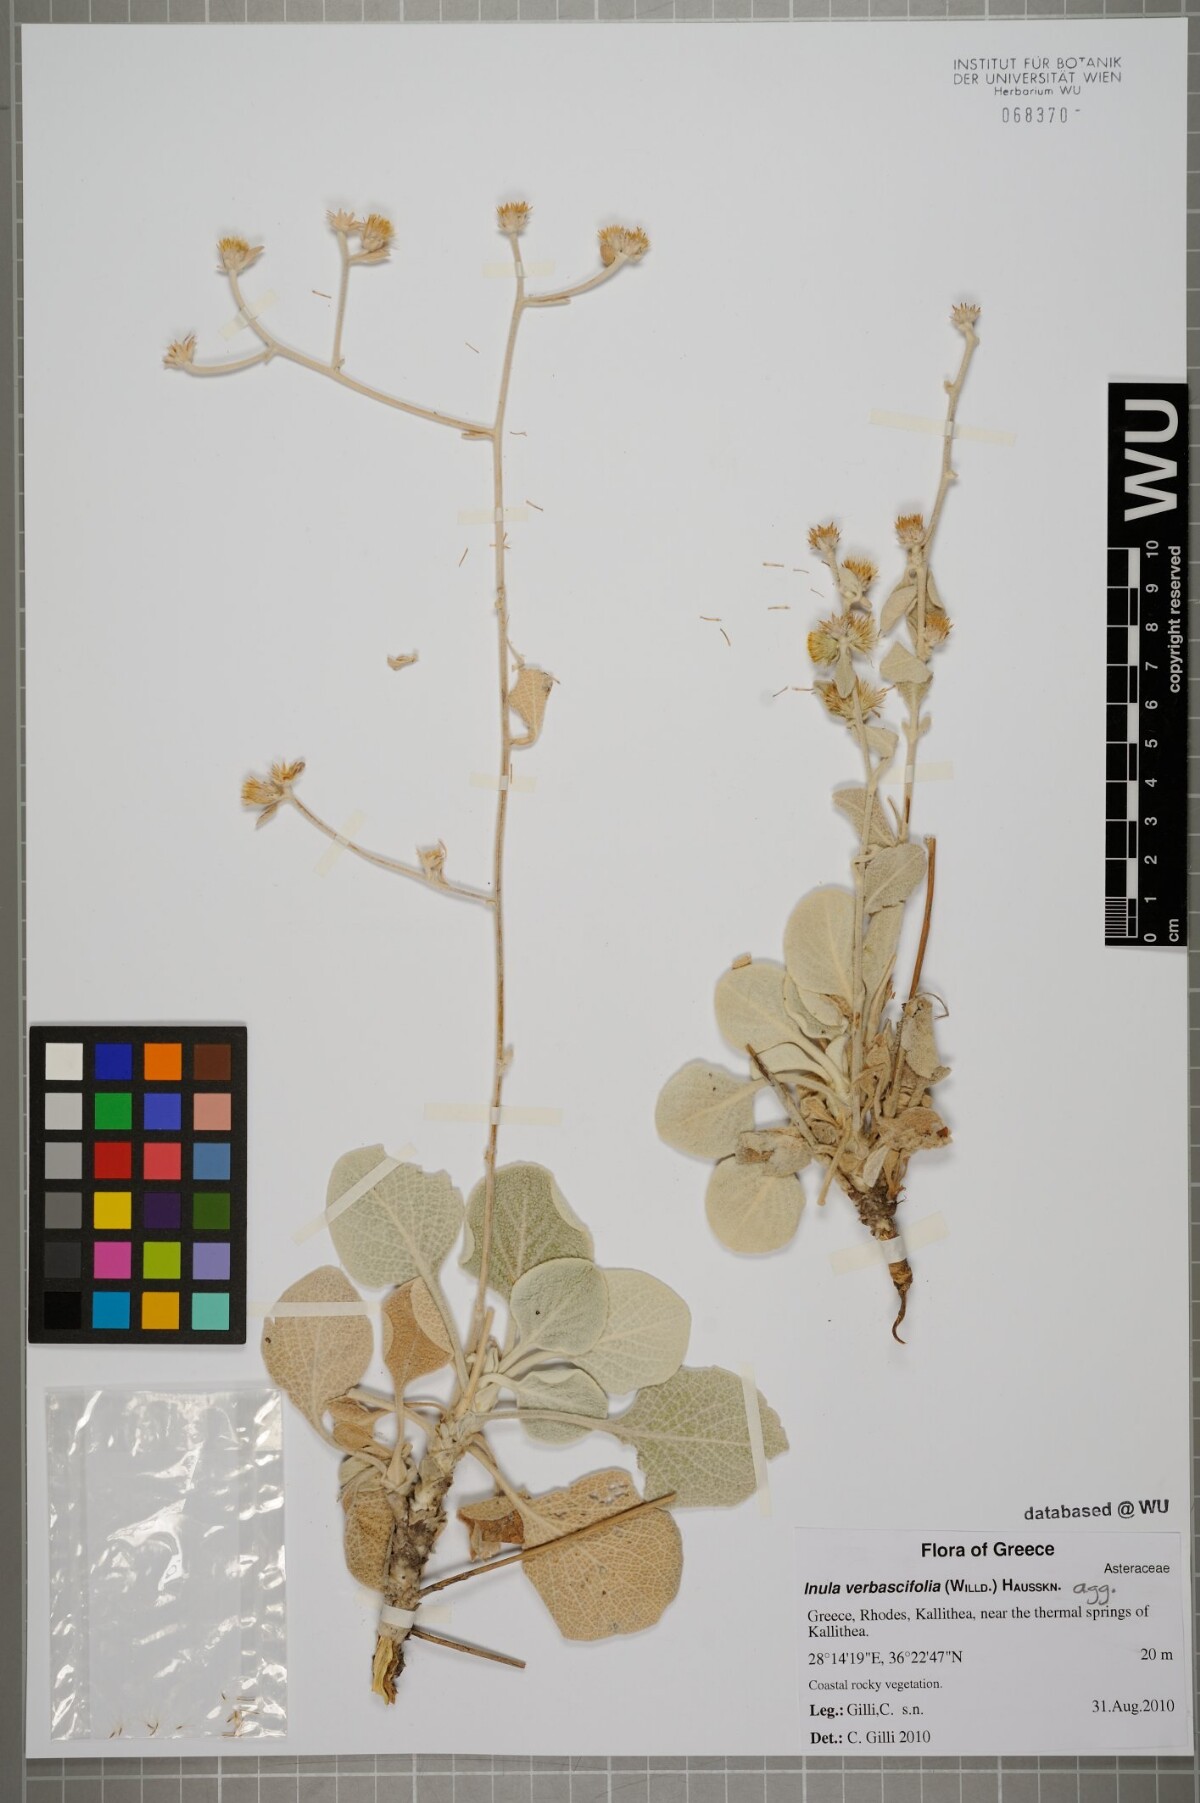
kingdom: Plantae
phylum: Tracheophyta
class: Magnoliopsida
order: Asterales
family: Asteraceae
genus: Pentanema
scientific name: Pentanema verbascifolium
